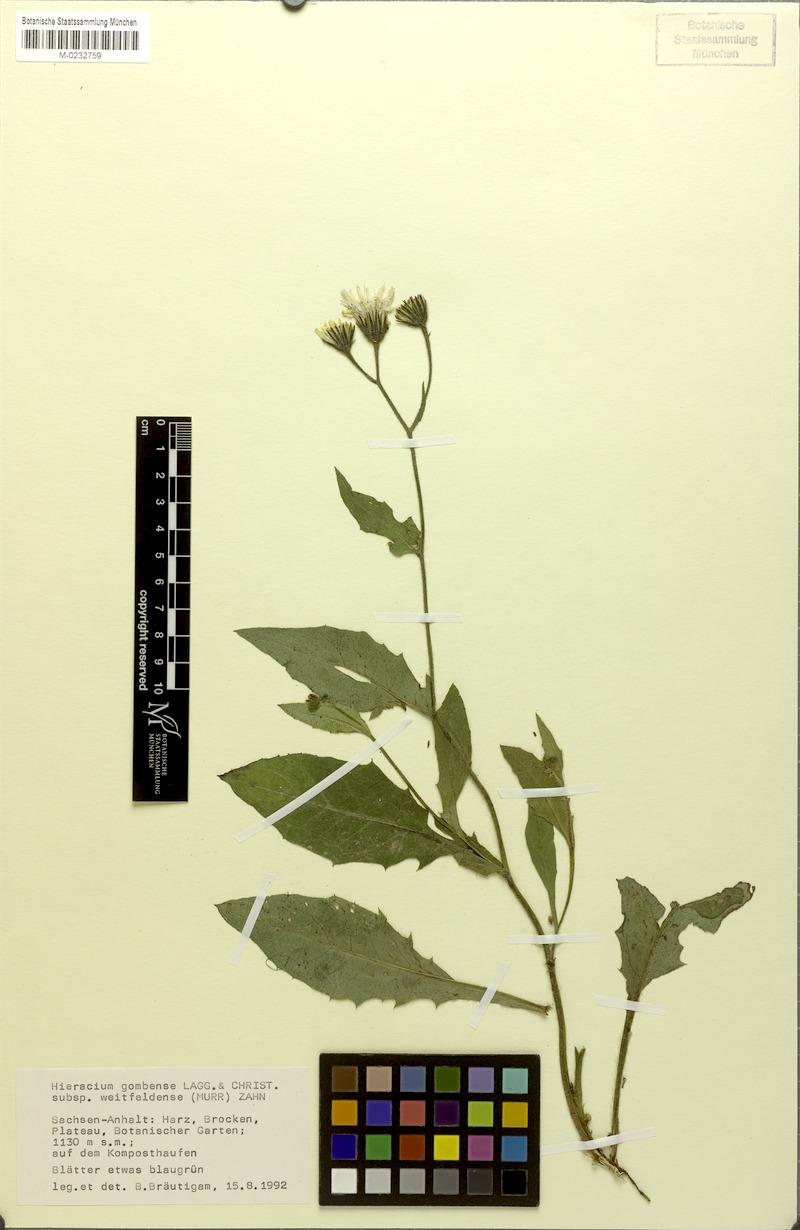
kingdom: Plantae
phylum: Tracheophyta
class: Magnoliopsida
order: Asterales
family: Asteraceae
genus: Hieracium
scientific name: Hieracium gombense
